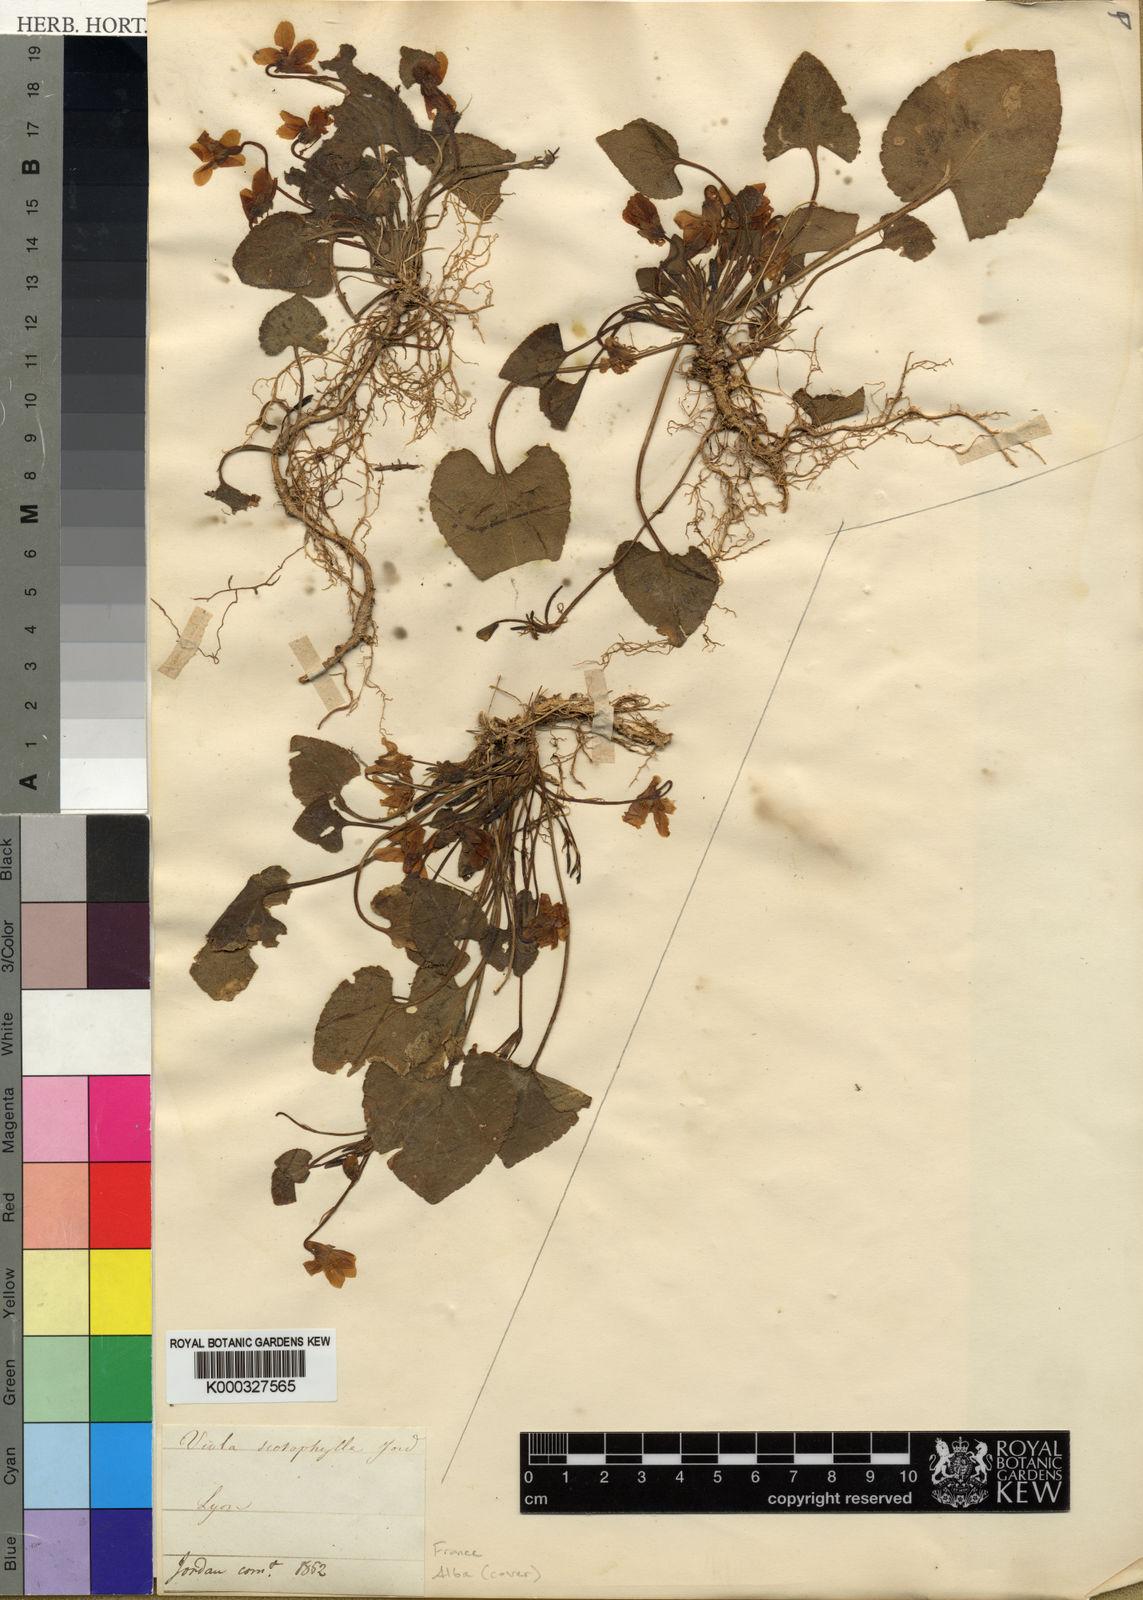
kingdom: Plantae
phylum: Tracheophyta
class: Magnoliopsida
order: Malpighiales
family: Violaceae
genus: Viola
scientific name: Viola alba
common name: White violet
